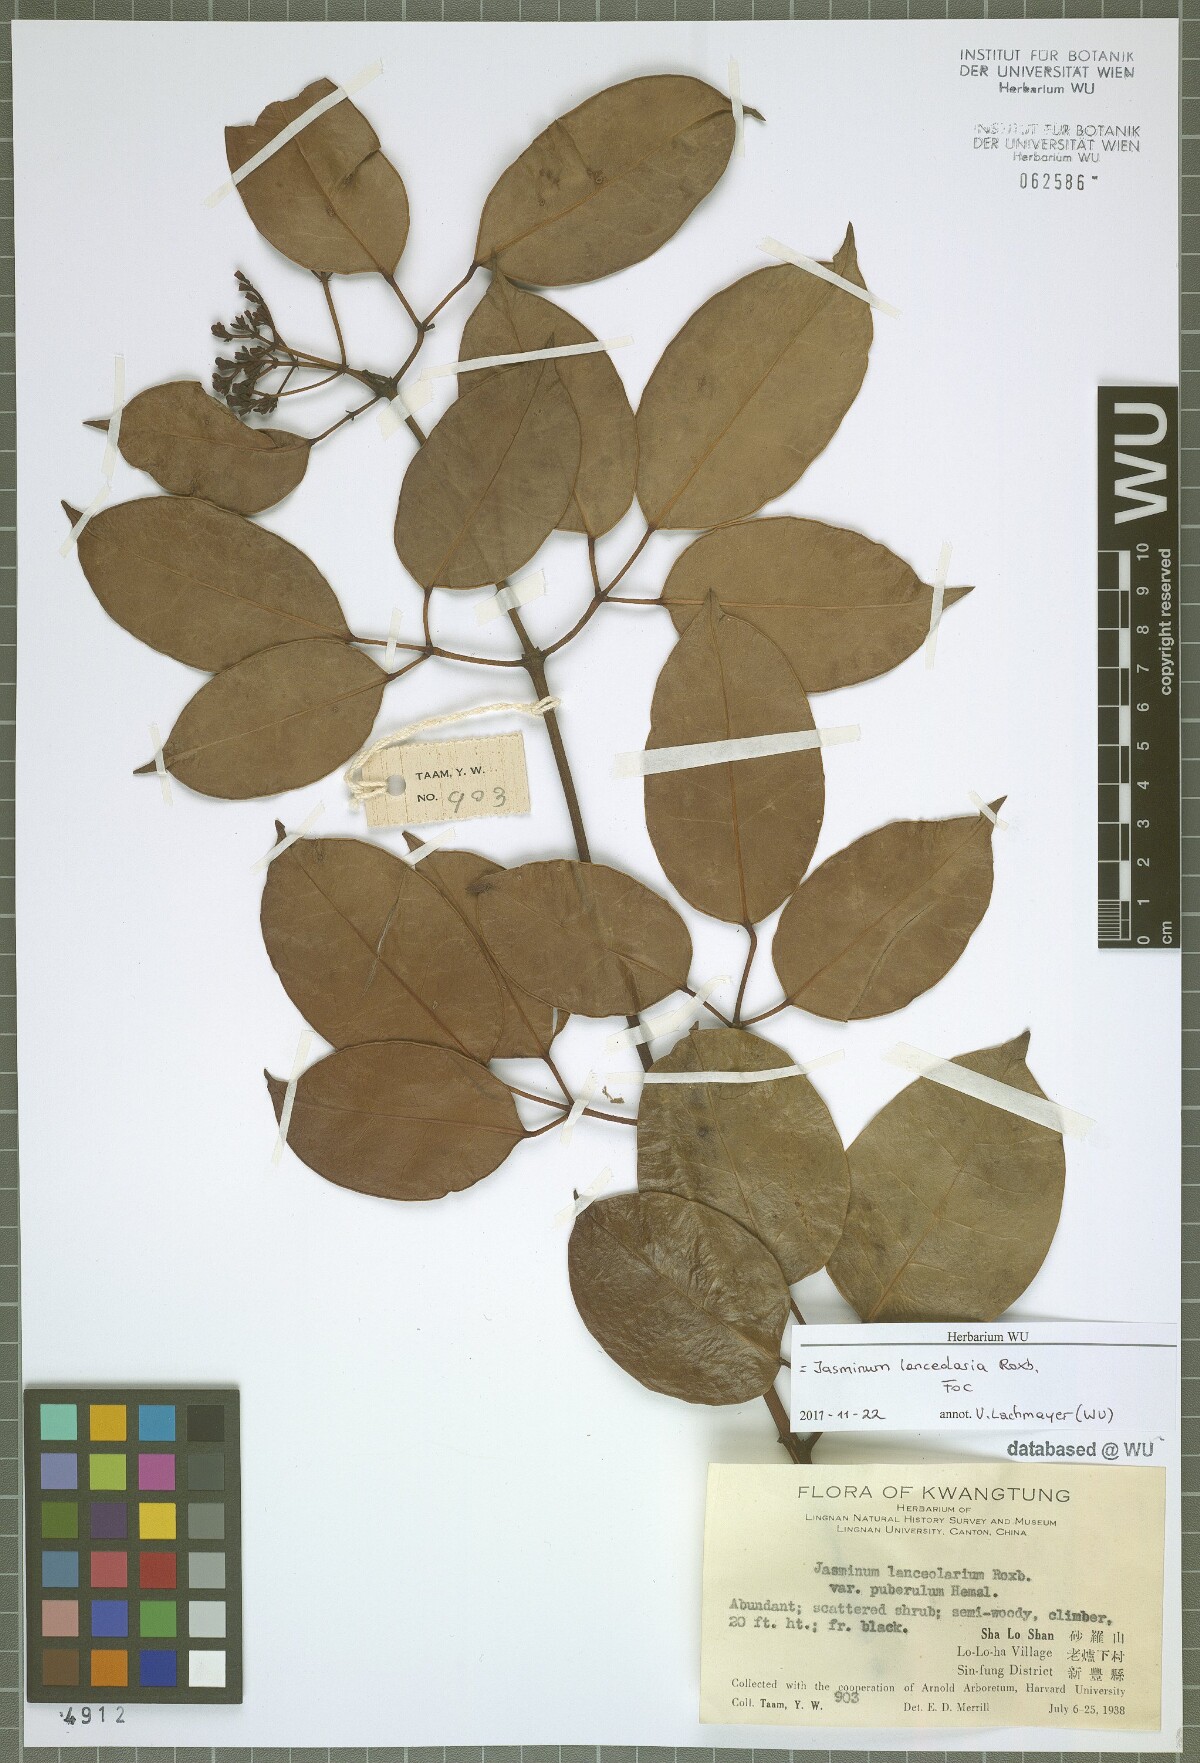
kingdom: Plantae
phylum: Tracheophyta
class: Magnoliopsida
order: Lamiales
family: Oleaceae
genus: Jasminum
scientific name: Jasminum lanceolaria
